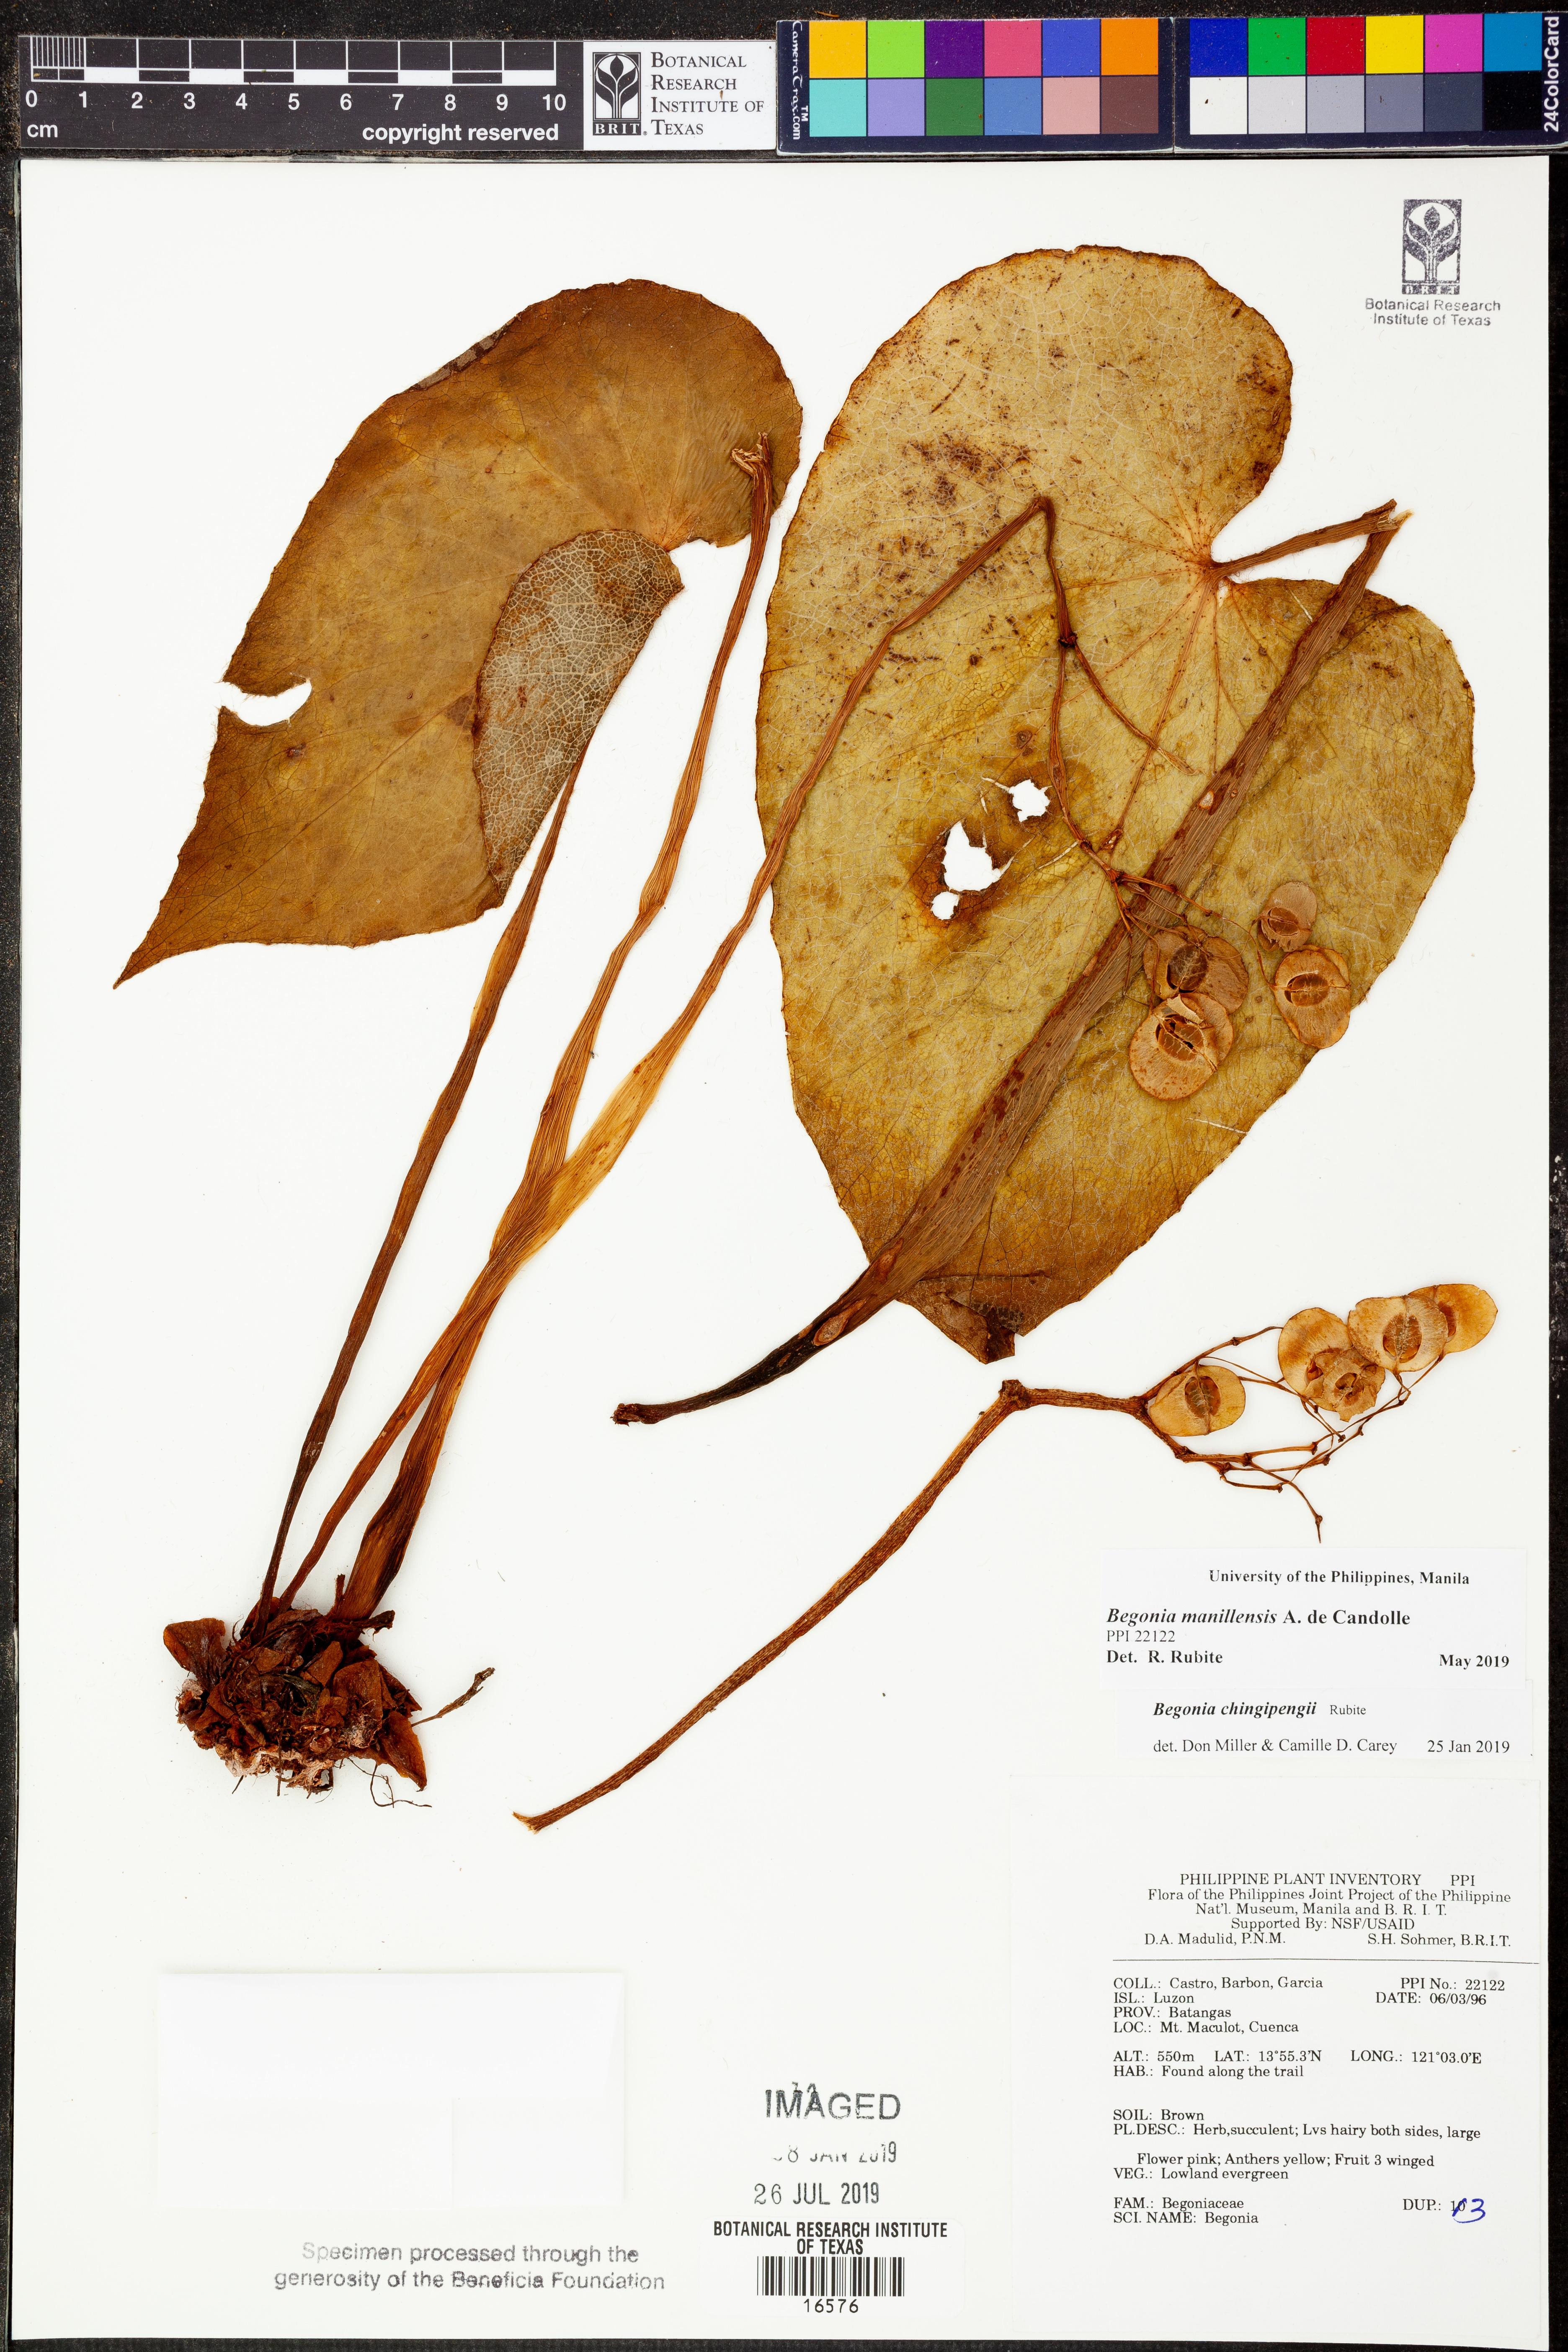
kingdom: Plantae
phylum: Tracheophyta
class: Magnoliopsida
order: Cucurbitales
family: Begoniaceae
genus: Begonia
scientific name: Begonia chingipengii
